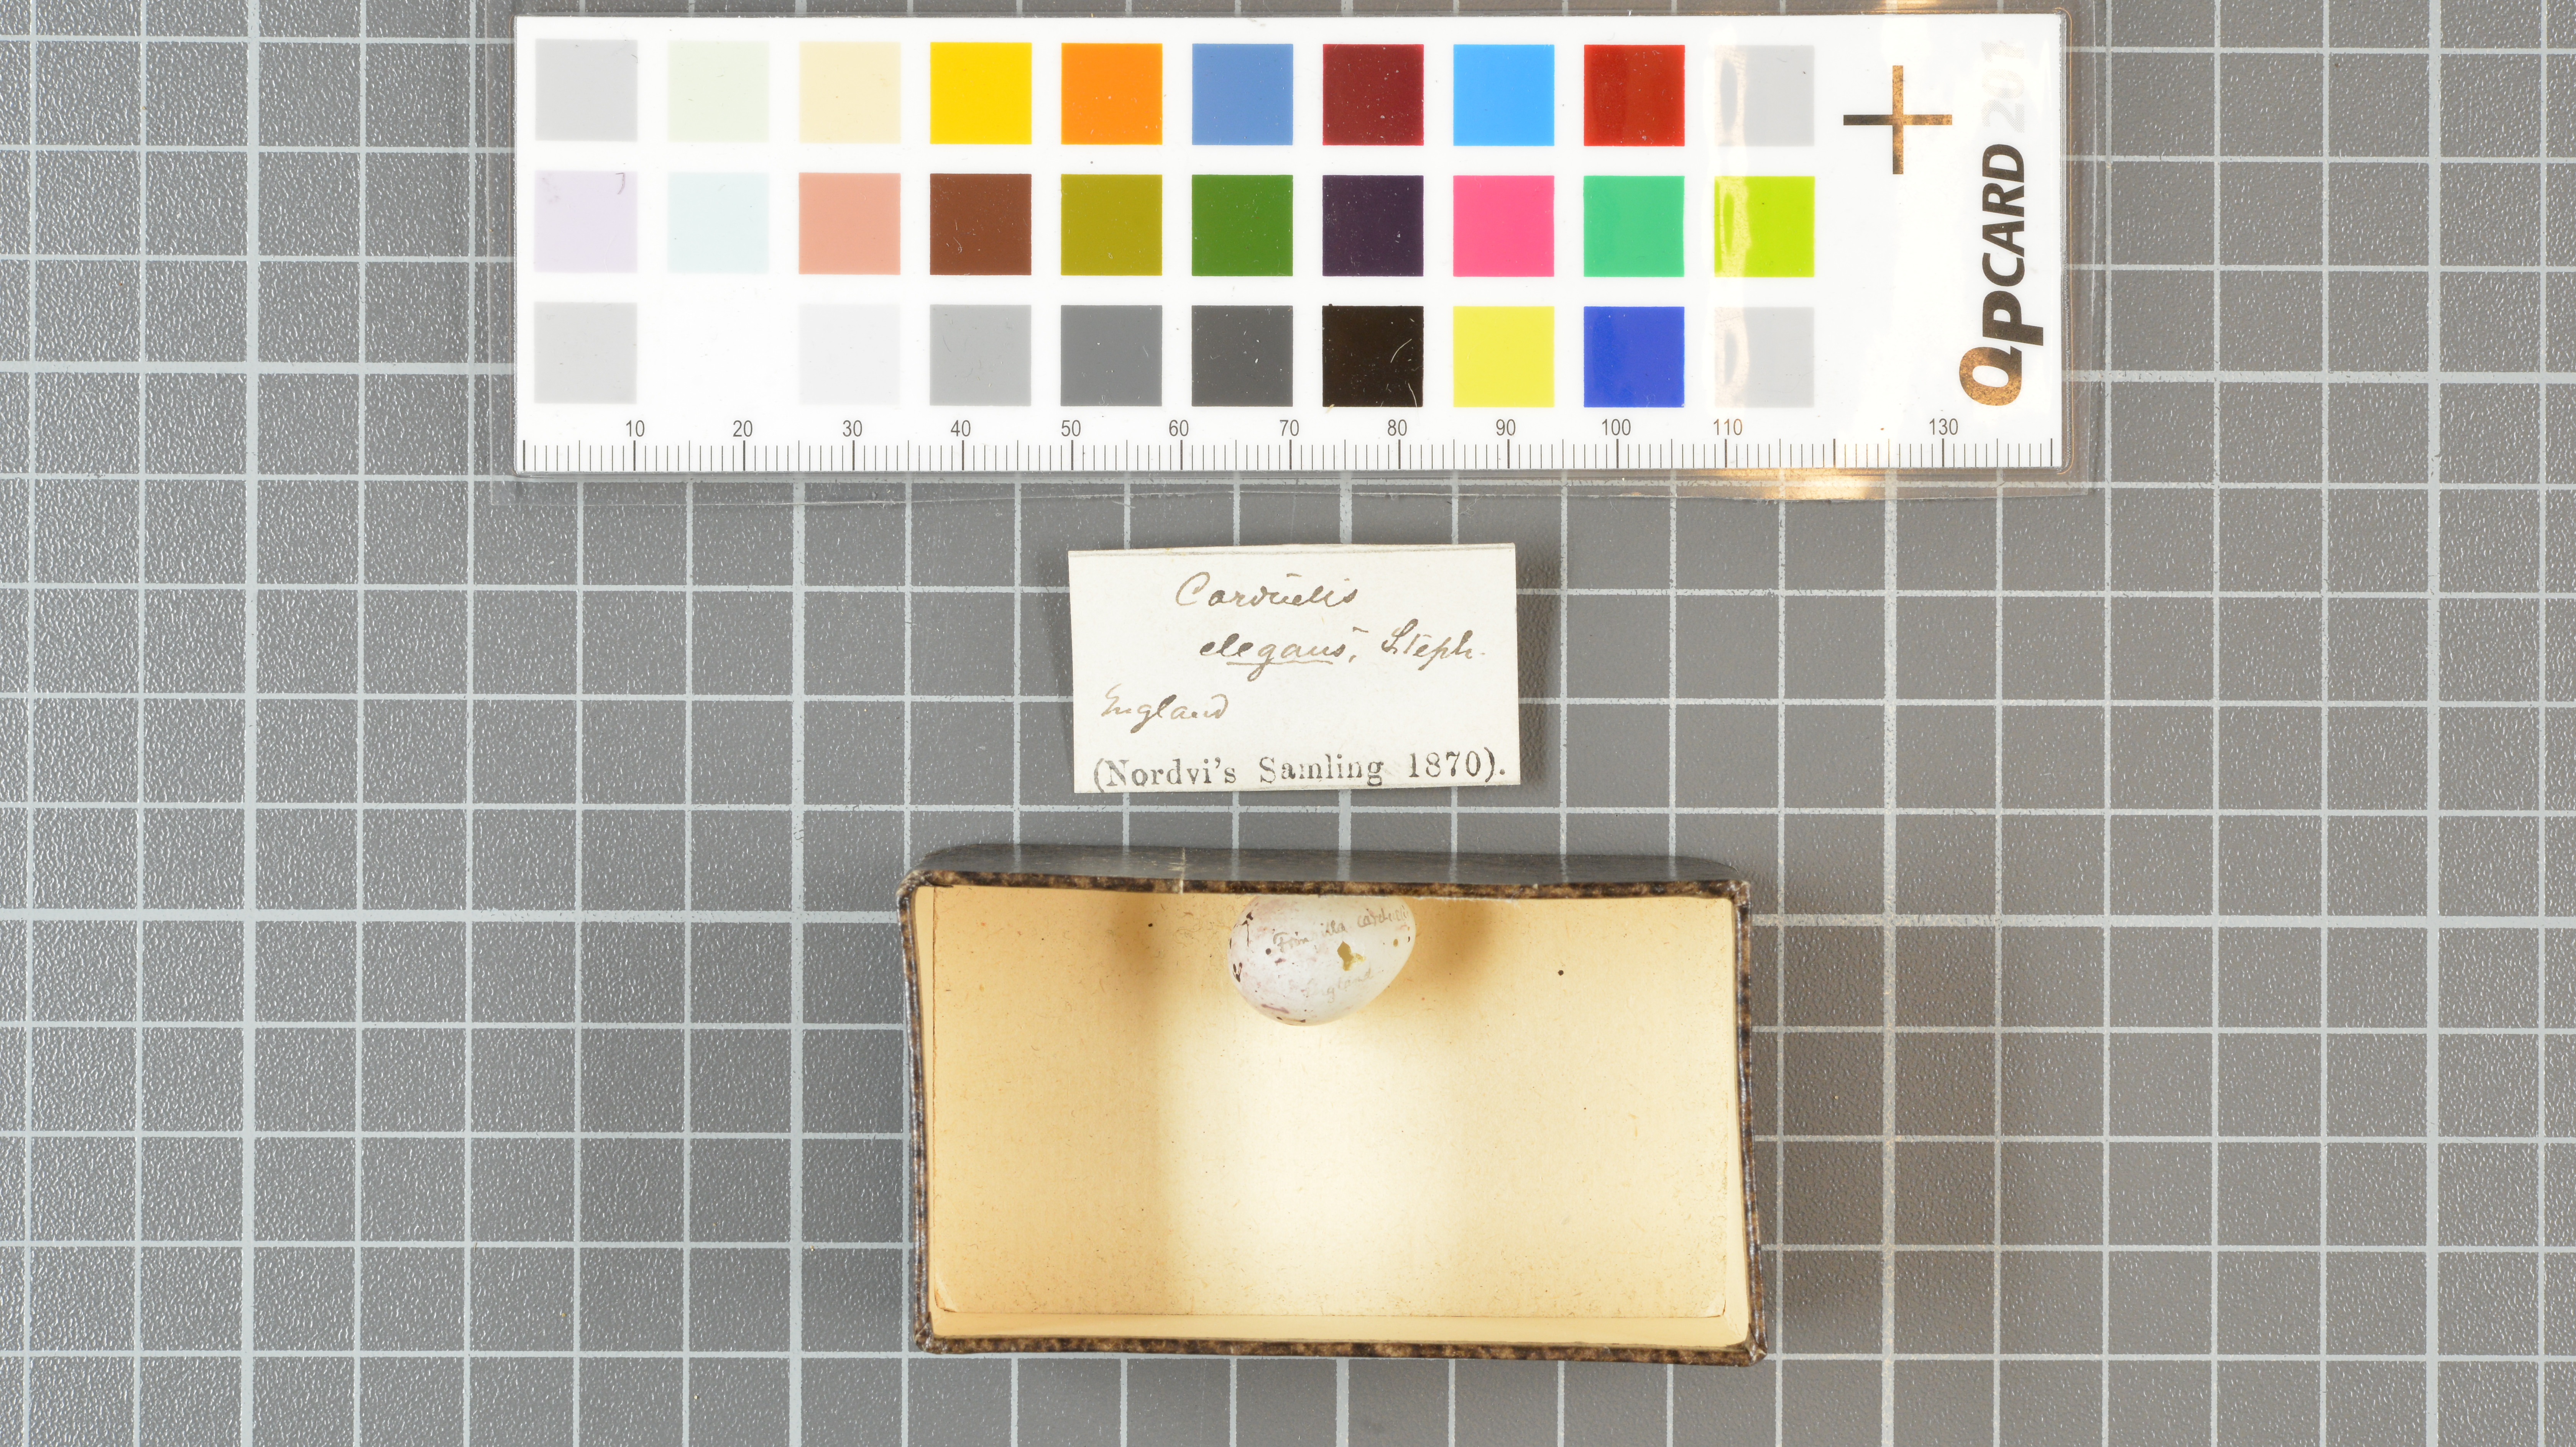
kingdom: Animalia
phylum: Chordata
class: Aves
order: Passeriformes
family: Fringillidae
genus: Carduelis
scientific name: Carduelis carduelis
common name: European goldfinch
